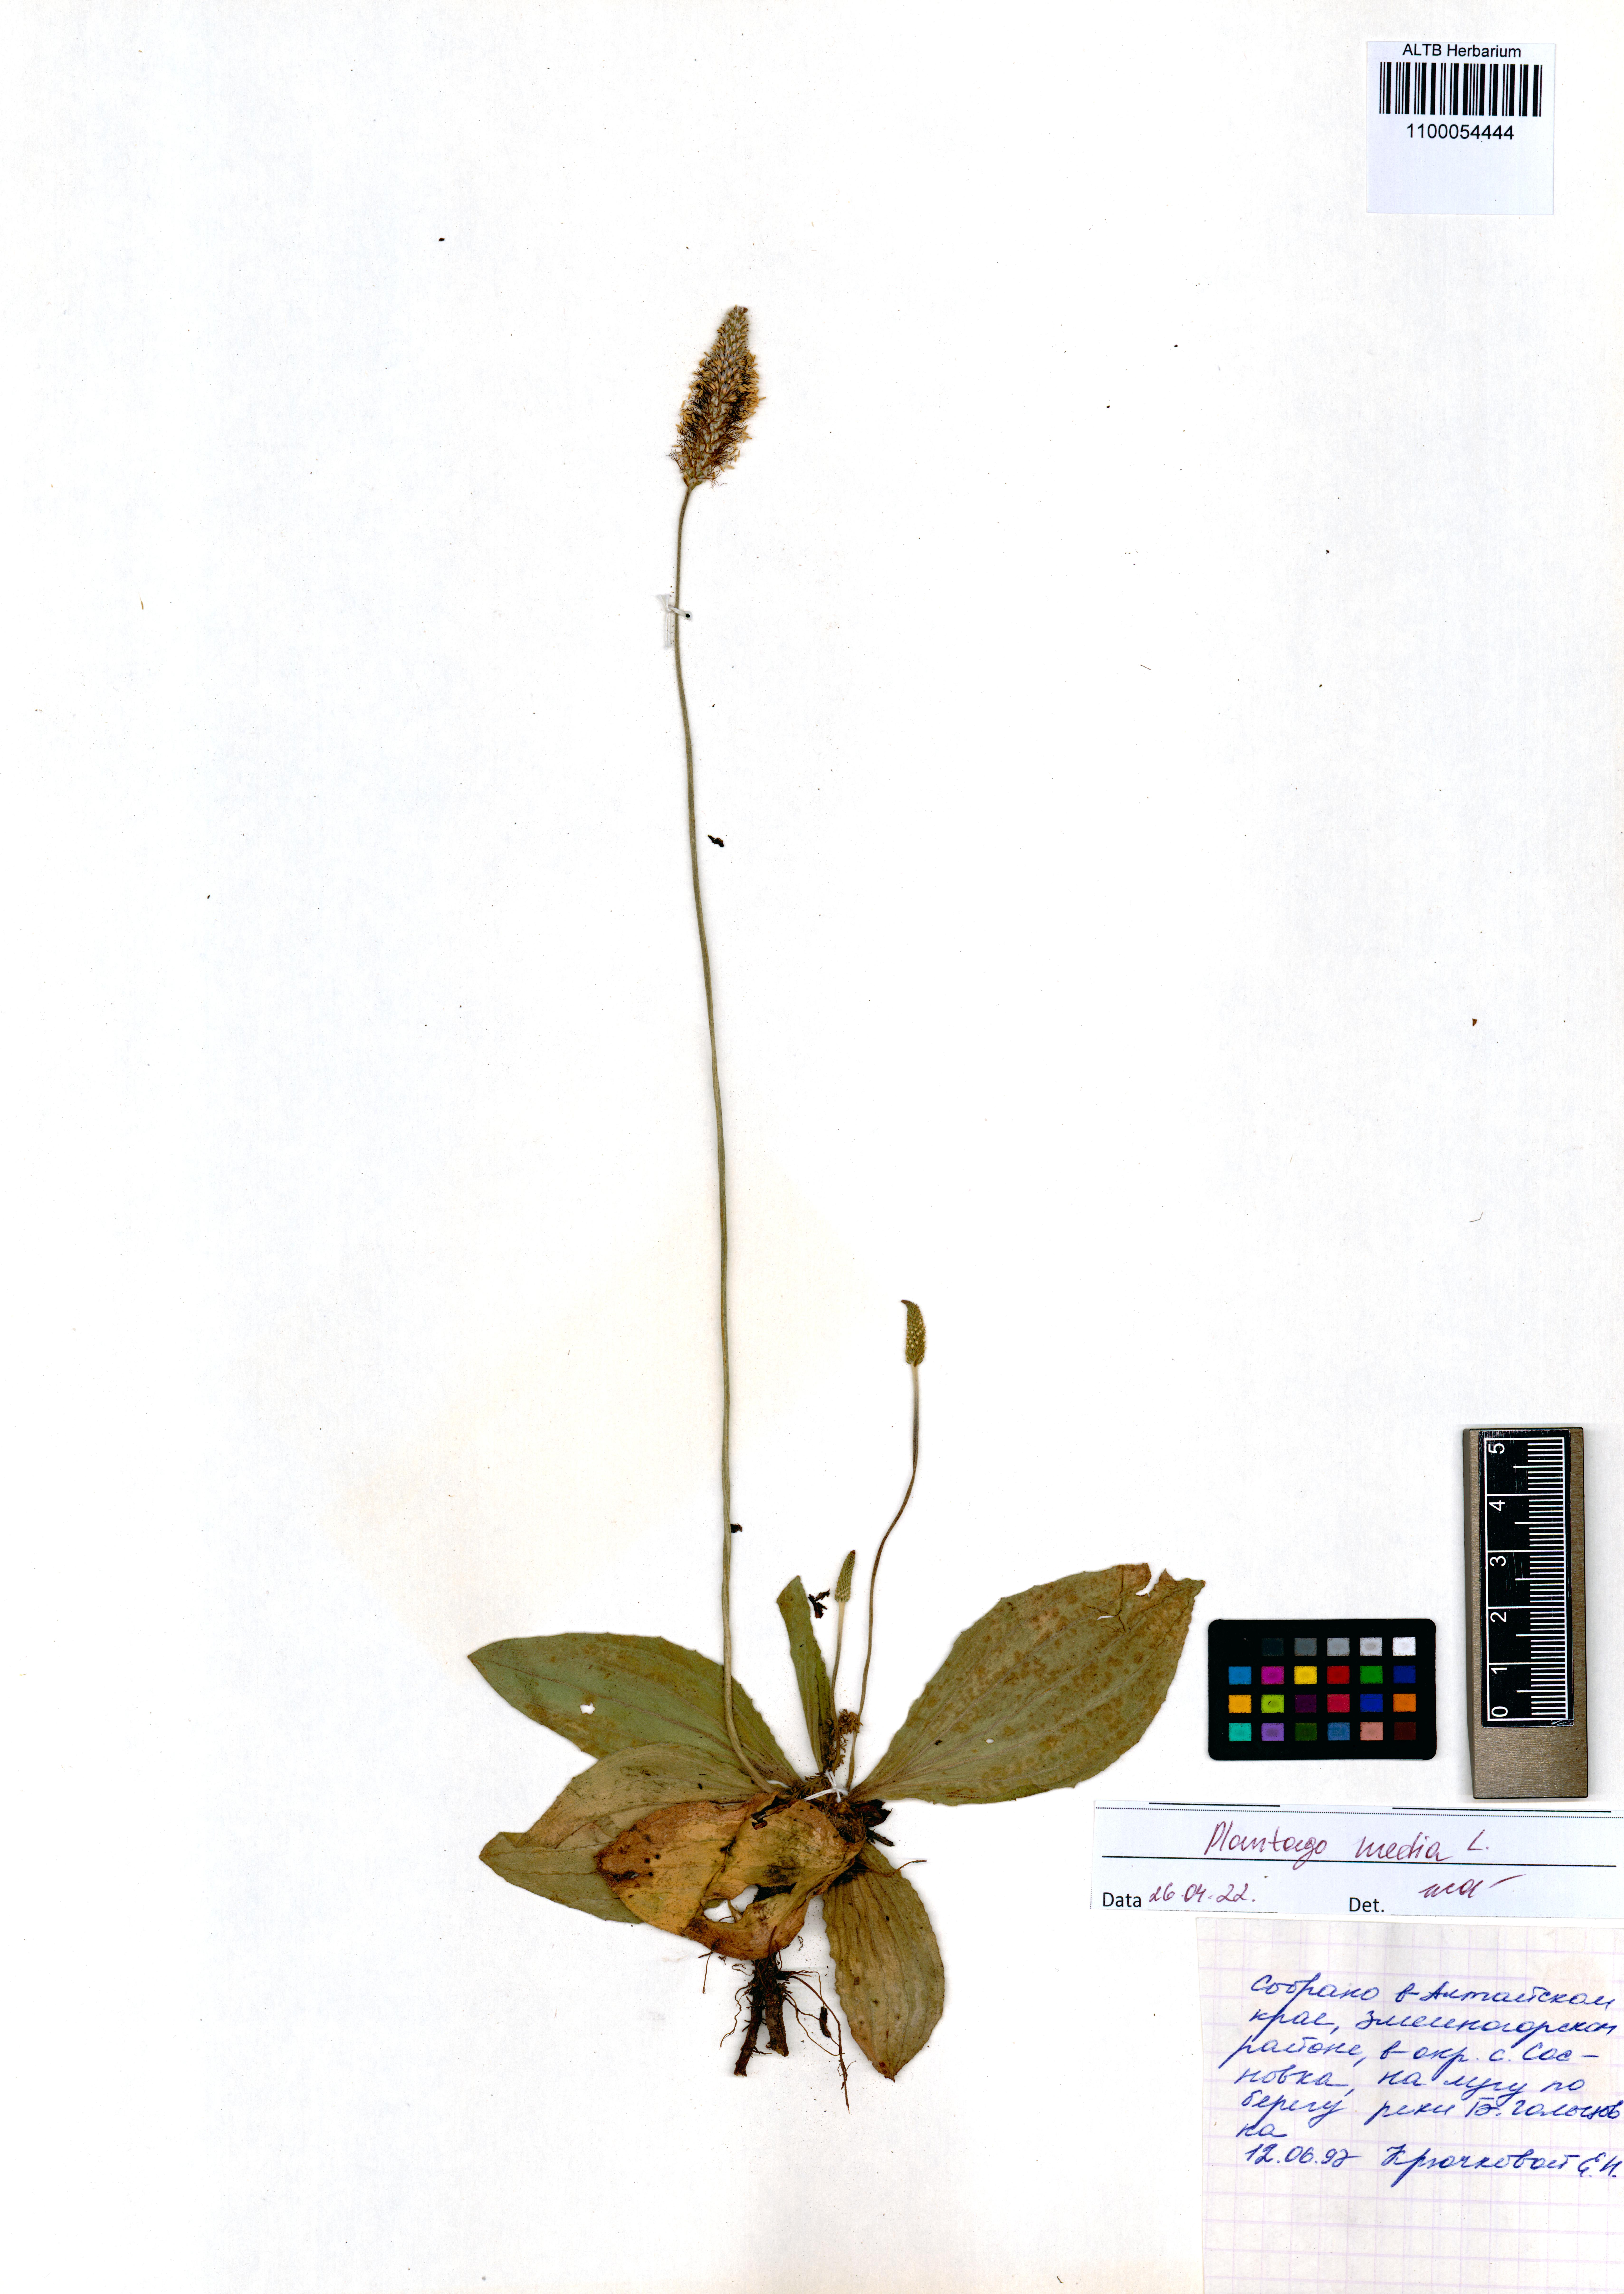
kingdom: Plantae
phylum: Tracheophyta
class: Magnoliopsida
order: Lamiales
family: Plantaginaceae
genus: Plantago
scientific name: Plantago media
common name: Hoary plantain
